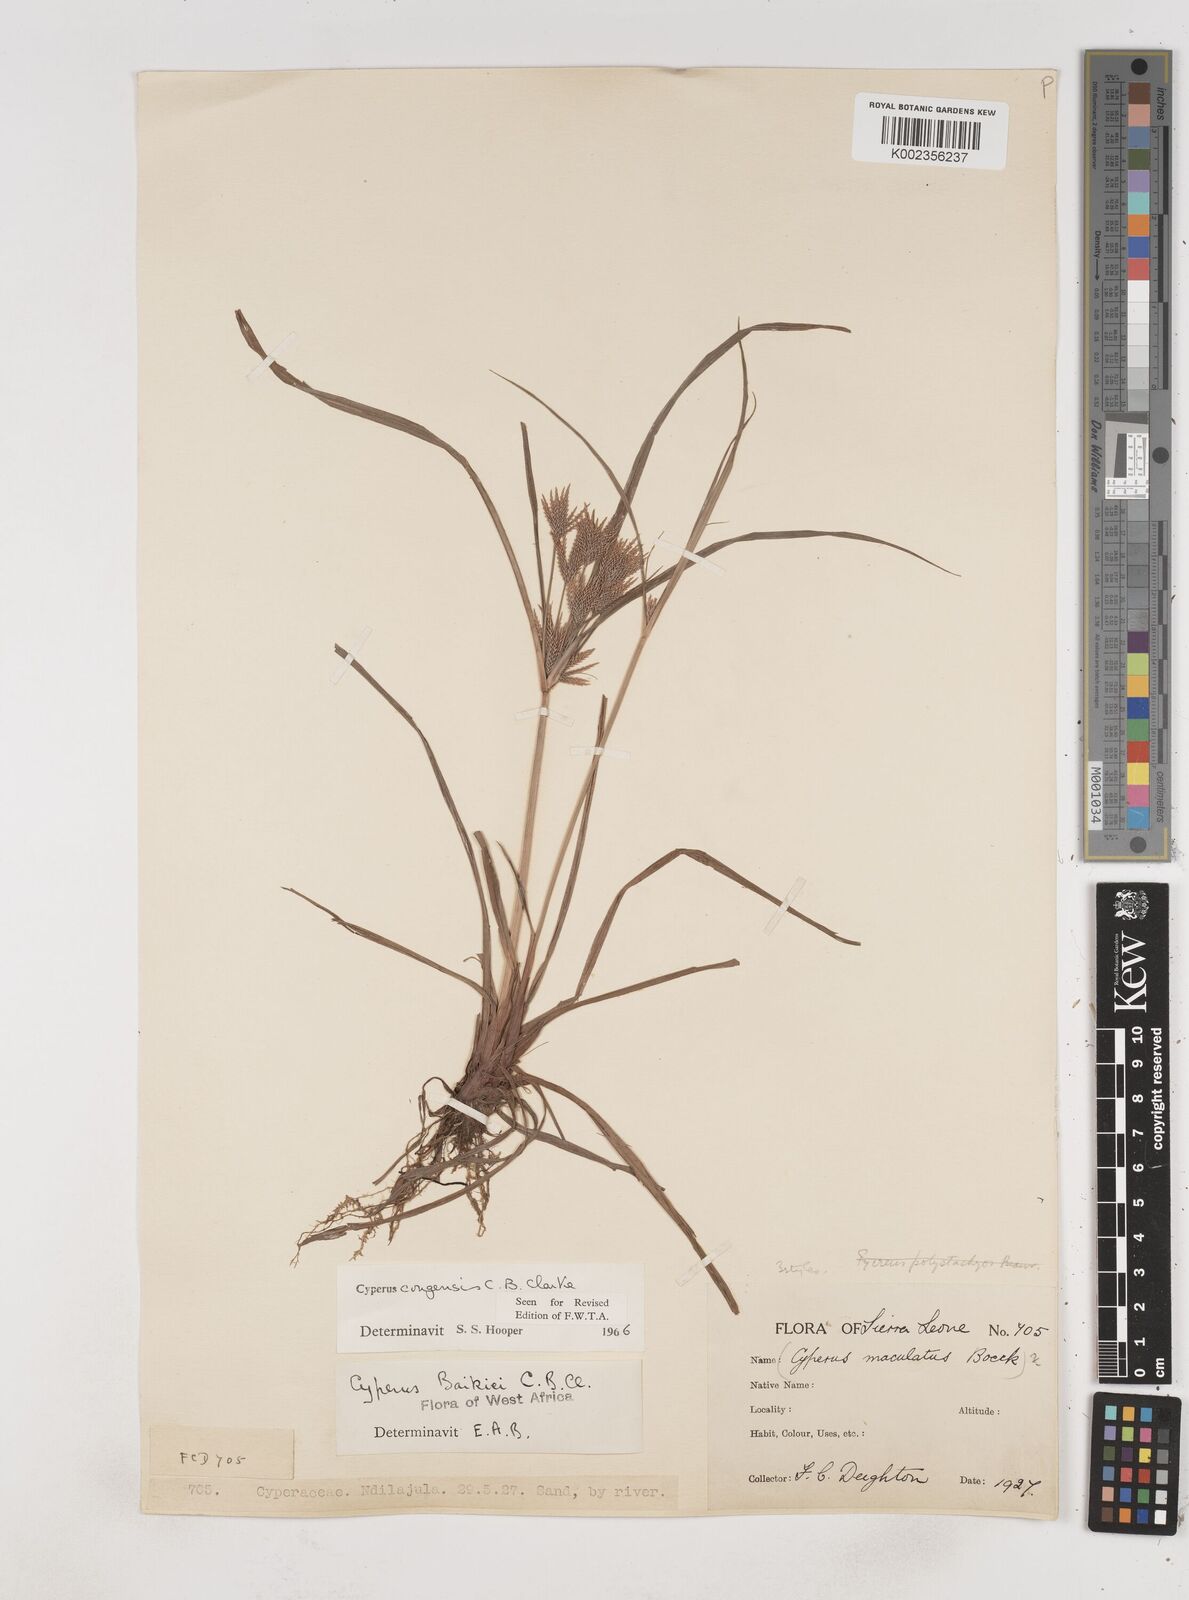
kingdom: Plantae
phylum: Tracheophyta
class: Liliopsida
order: Poales
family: Cyperaceae
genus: Cyperus
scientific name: Cyperus congensis
